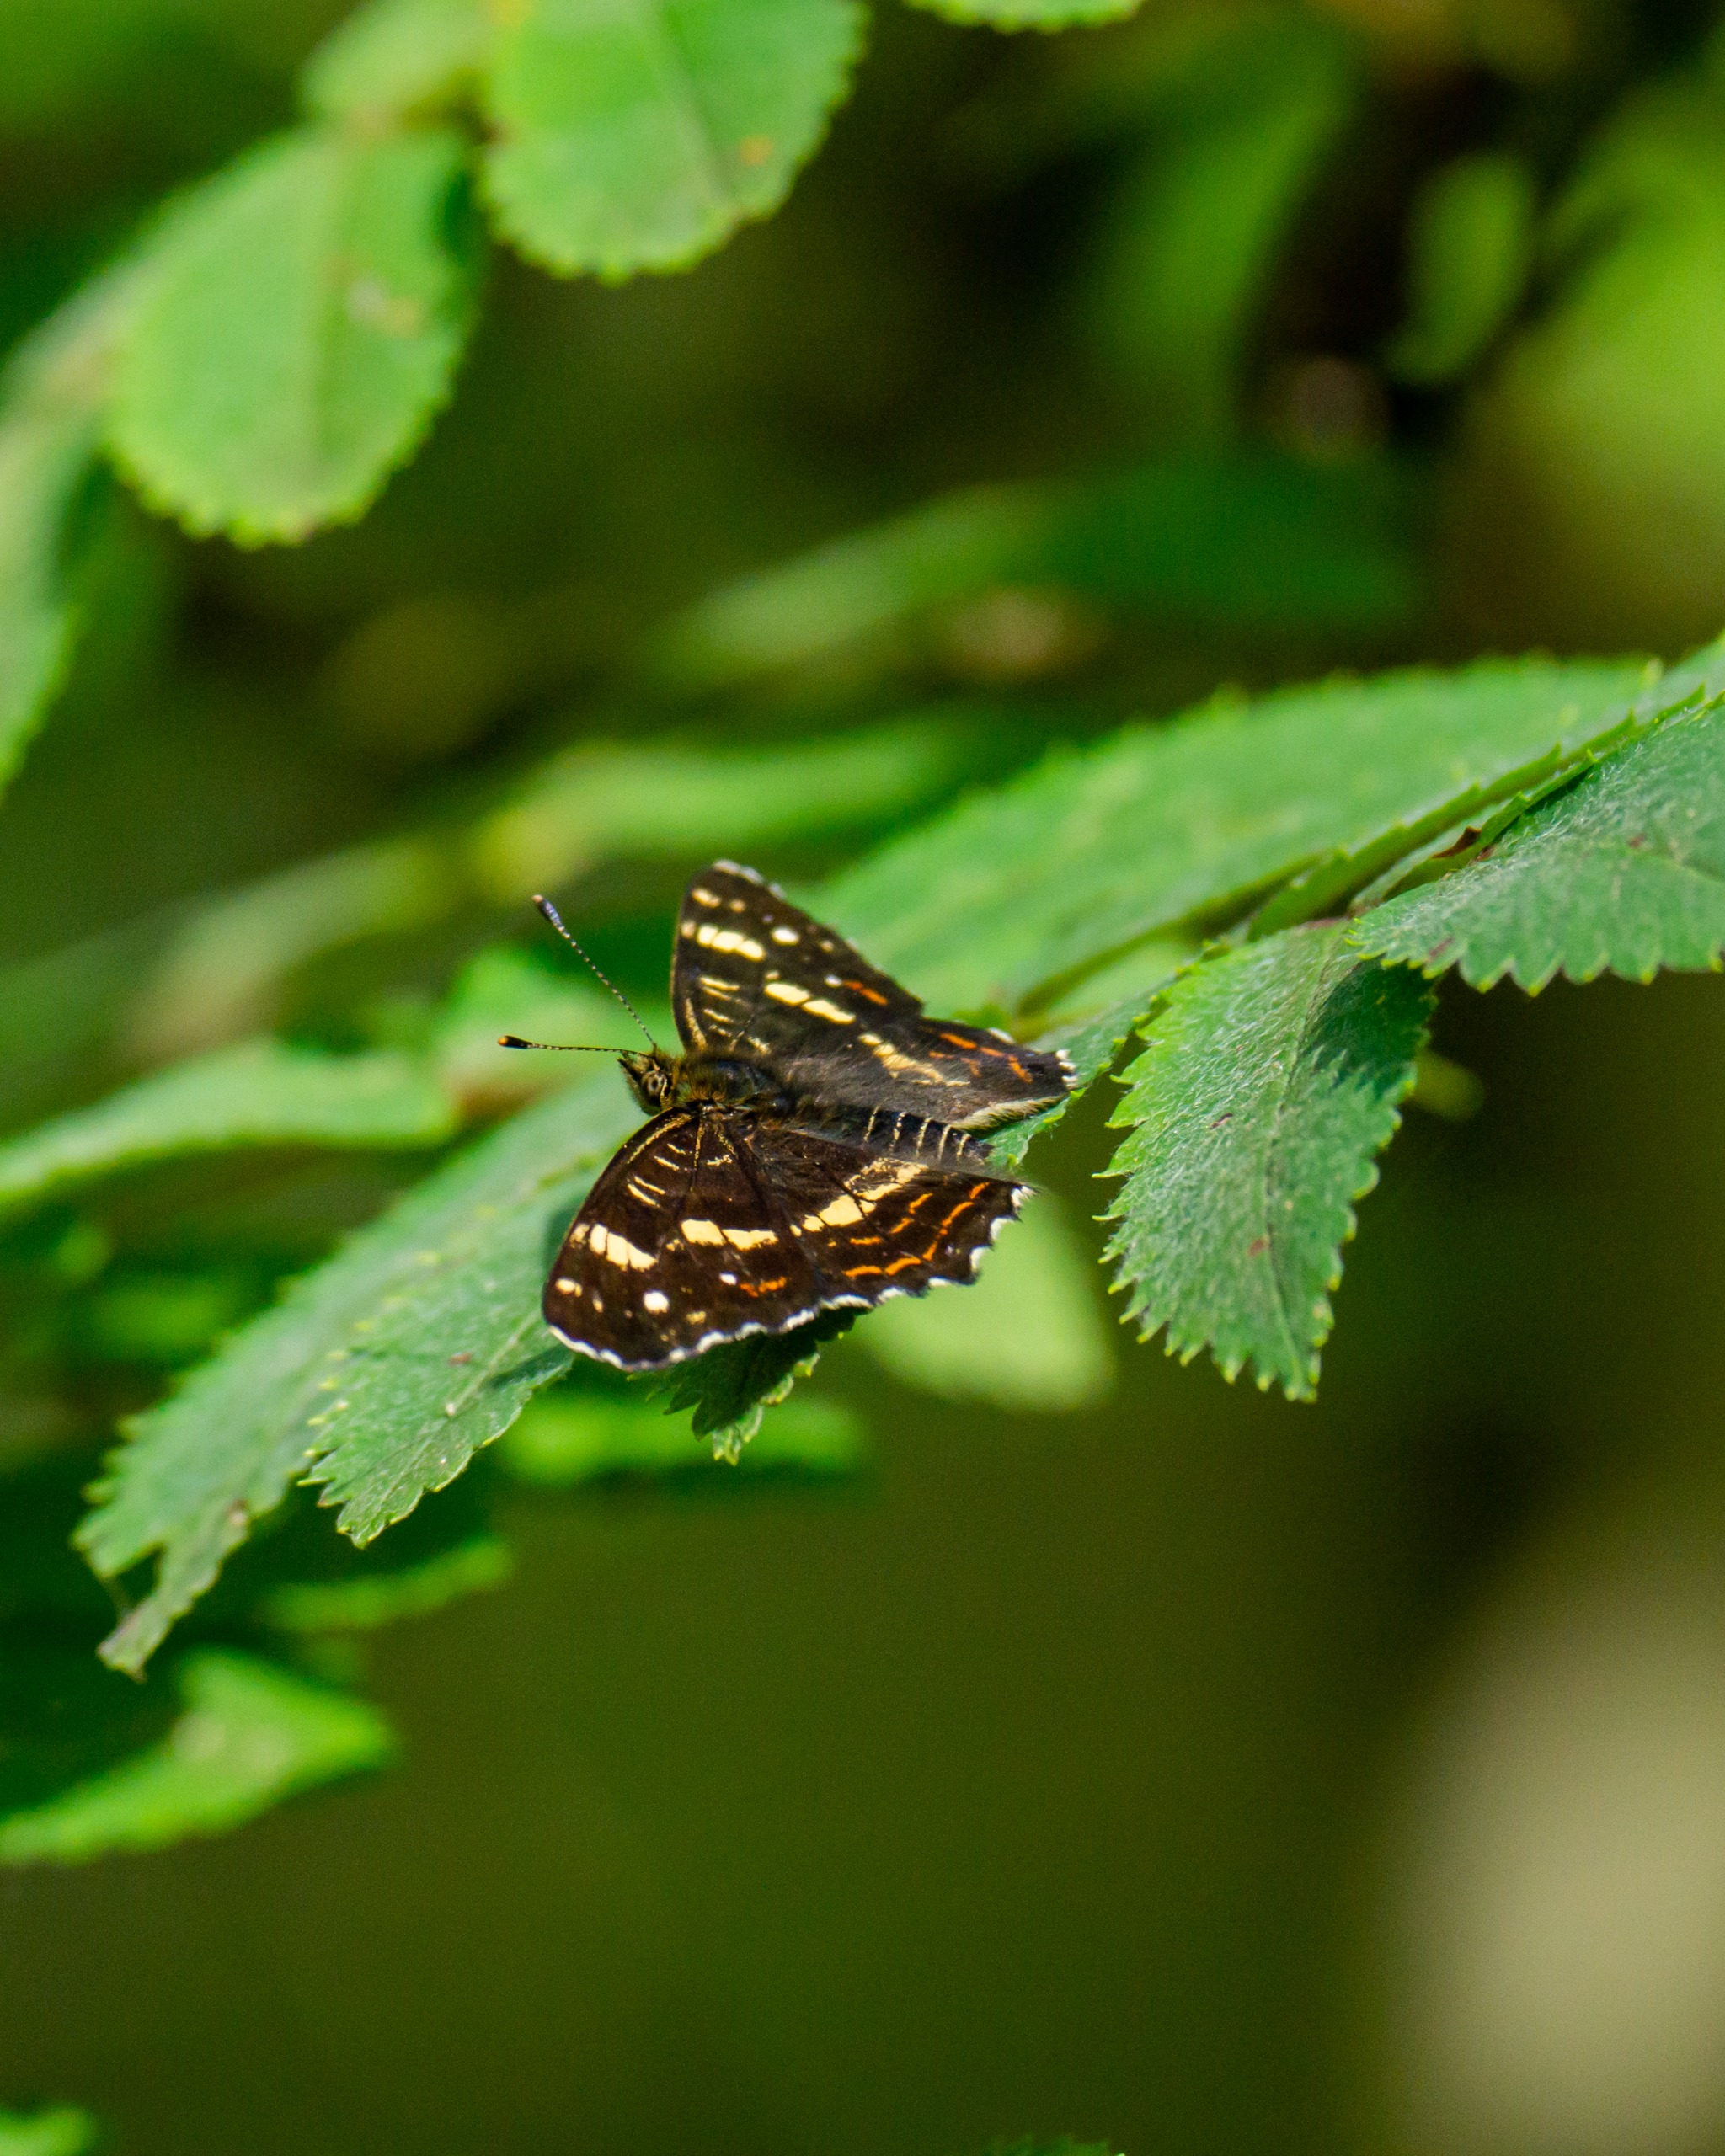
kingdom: Animalia
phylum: Arthropoda
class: Insecta
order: Lepidoptera
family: Nymphalidae
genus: Araschnia
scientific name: Araschnia levana
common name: Nældesommerfugl
